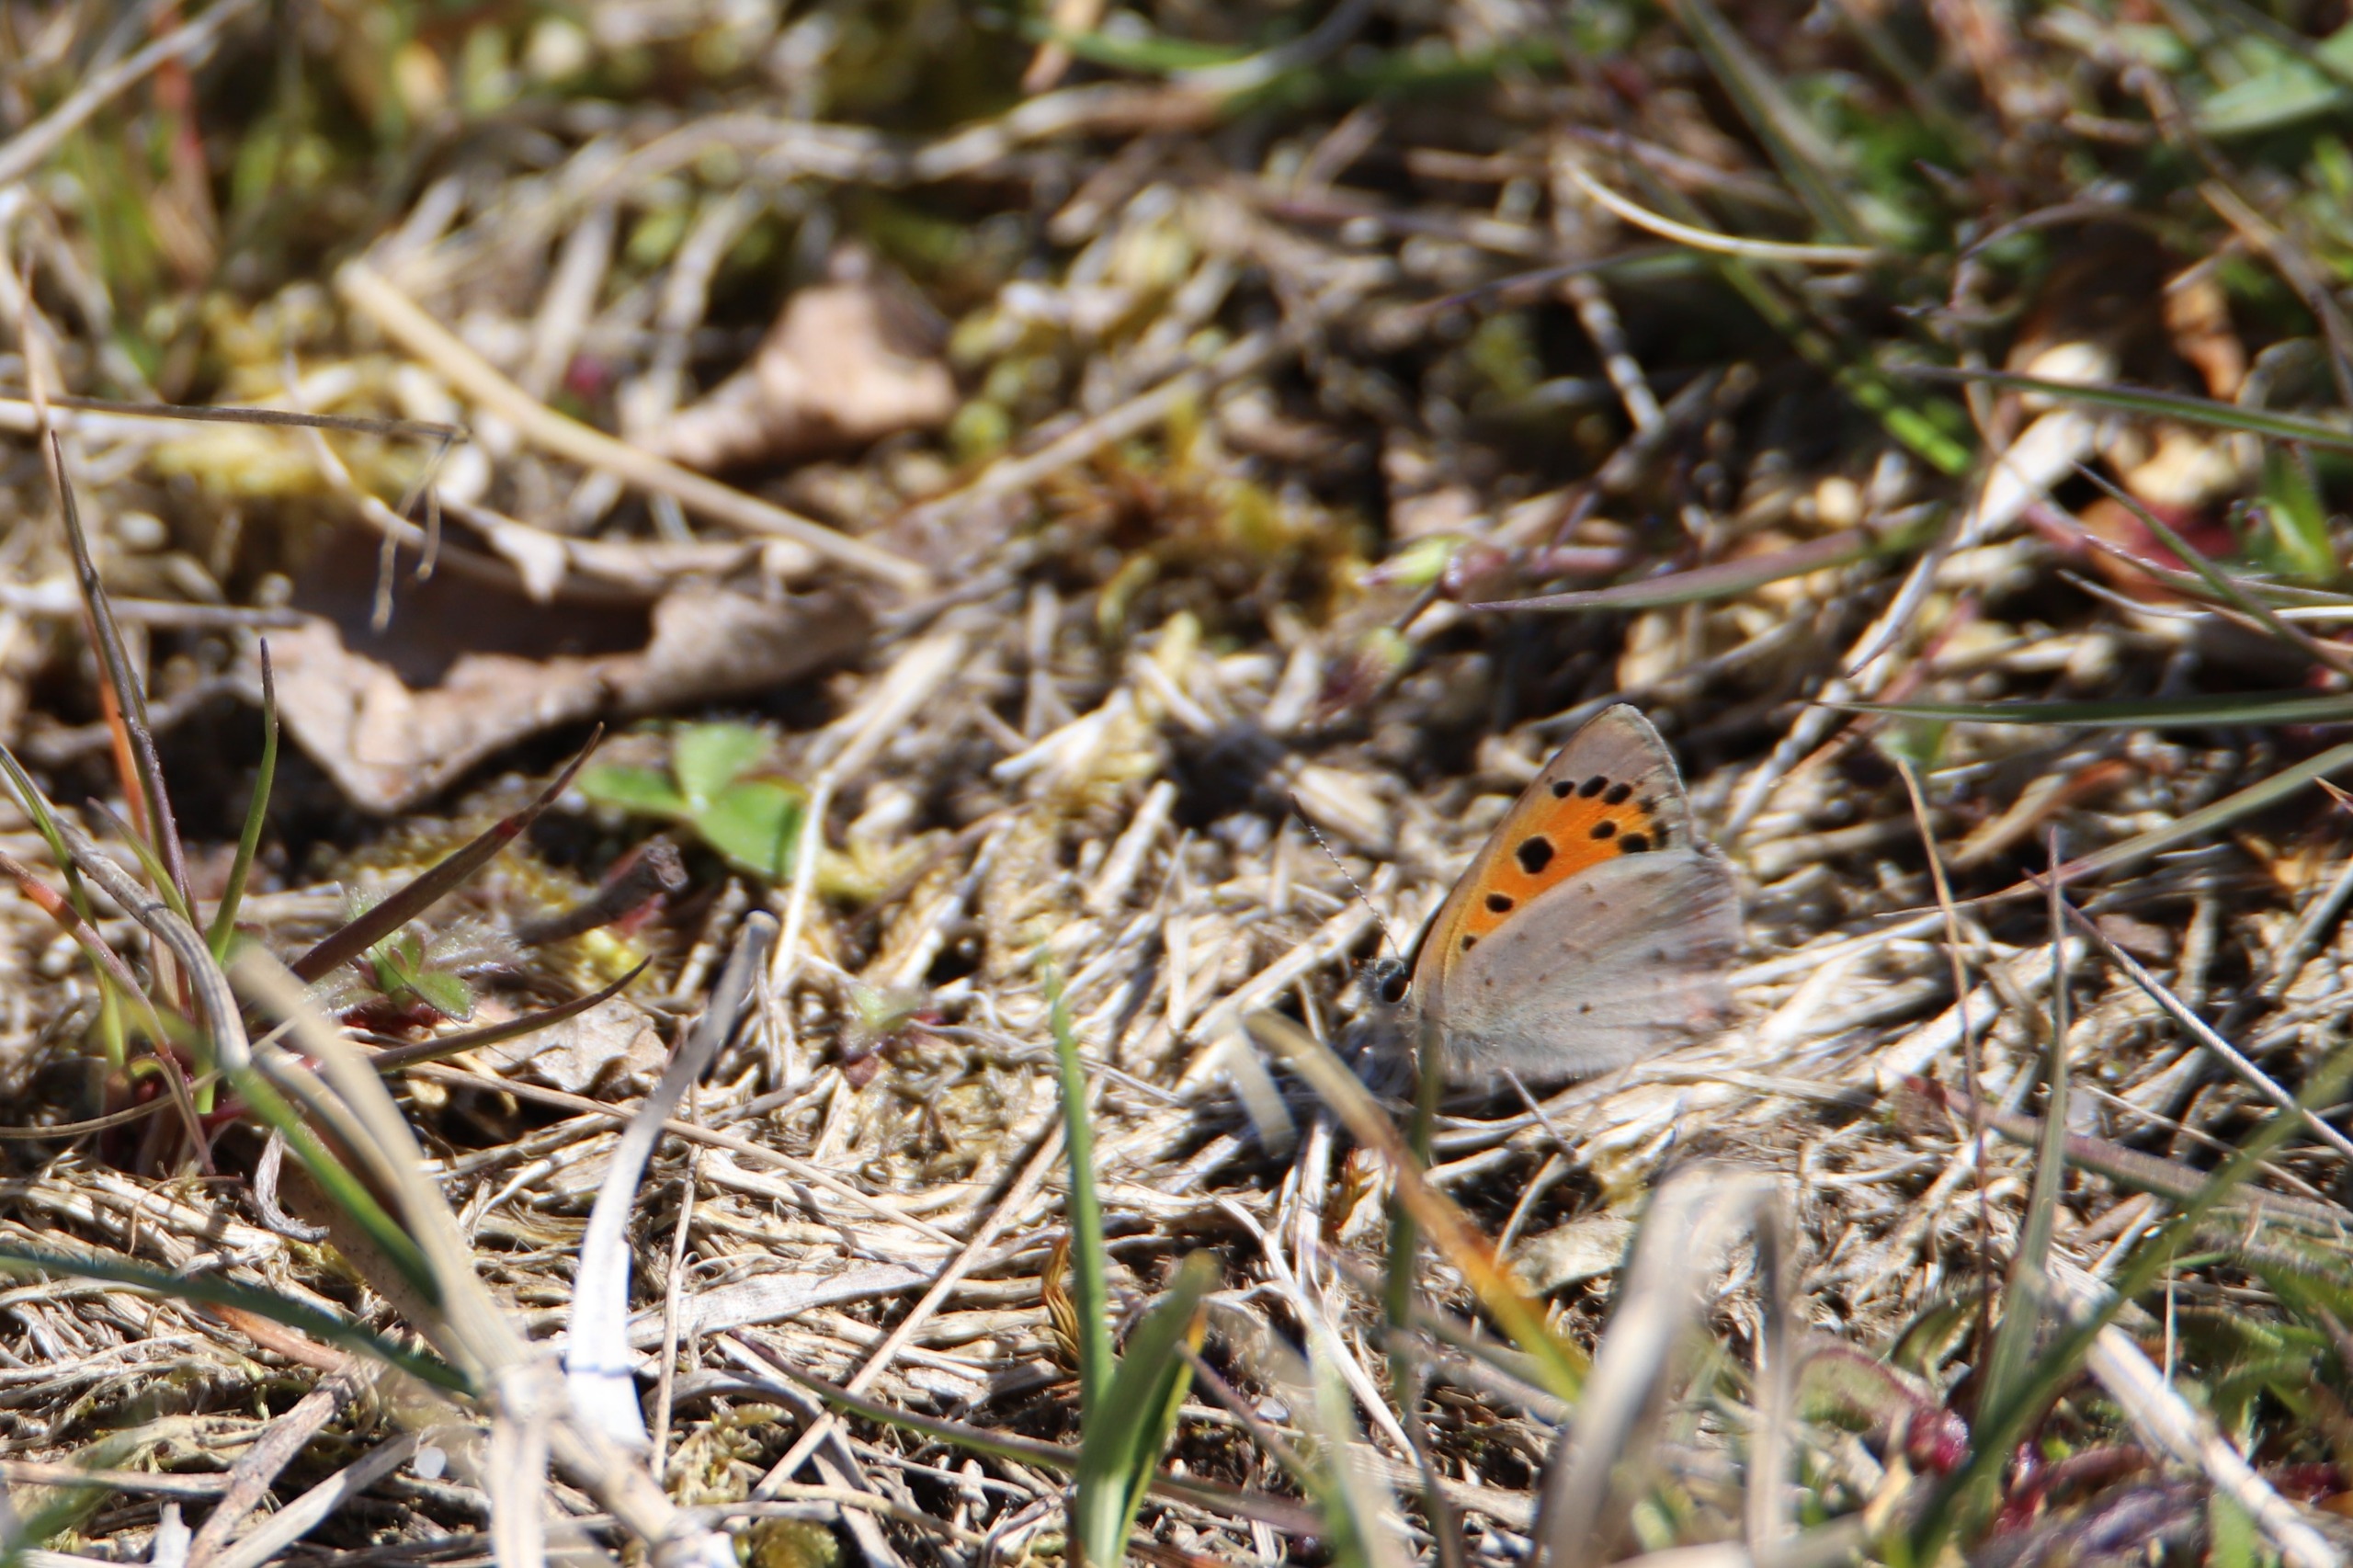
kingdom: Animalia
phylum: Arthropoda
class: Insecta
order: Lepidoptera
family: Lycaenidae
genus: Lycaena
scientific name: Lycaena phlaeas
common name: Lille ildfugl
